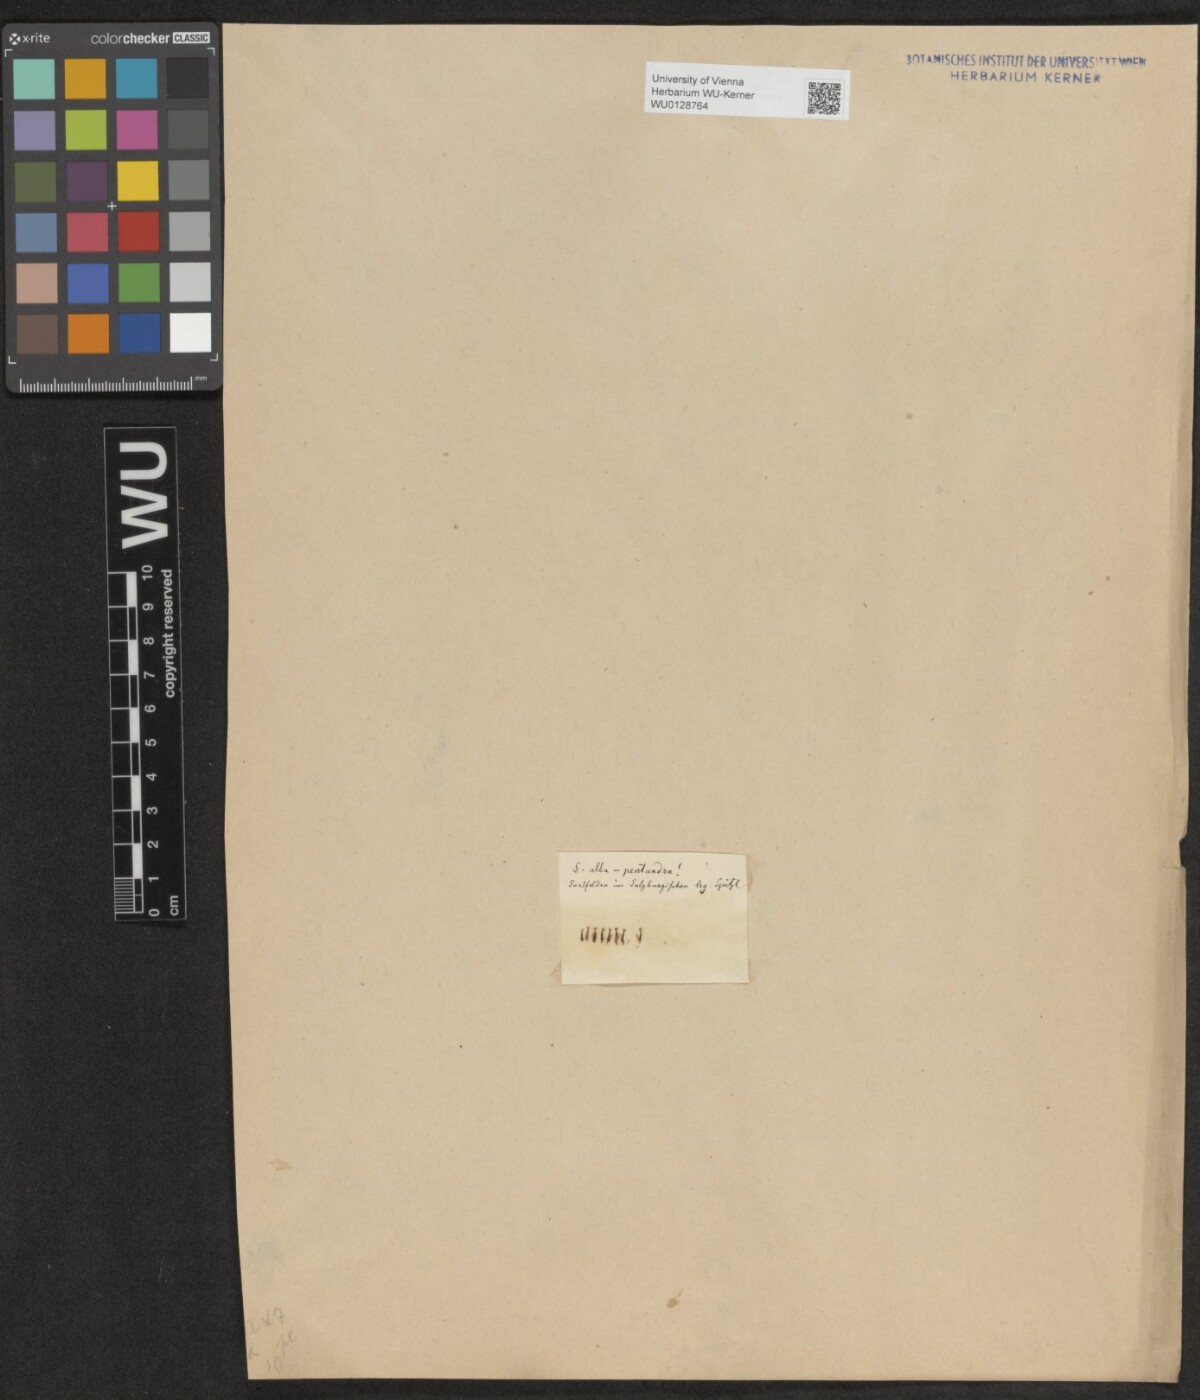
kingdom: Plantae
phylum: Tracheophyta
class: Magnoliopsida
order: Malpighiales
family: Salicaceae
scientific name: Salicaceae
